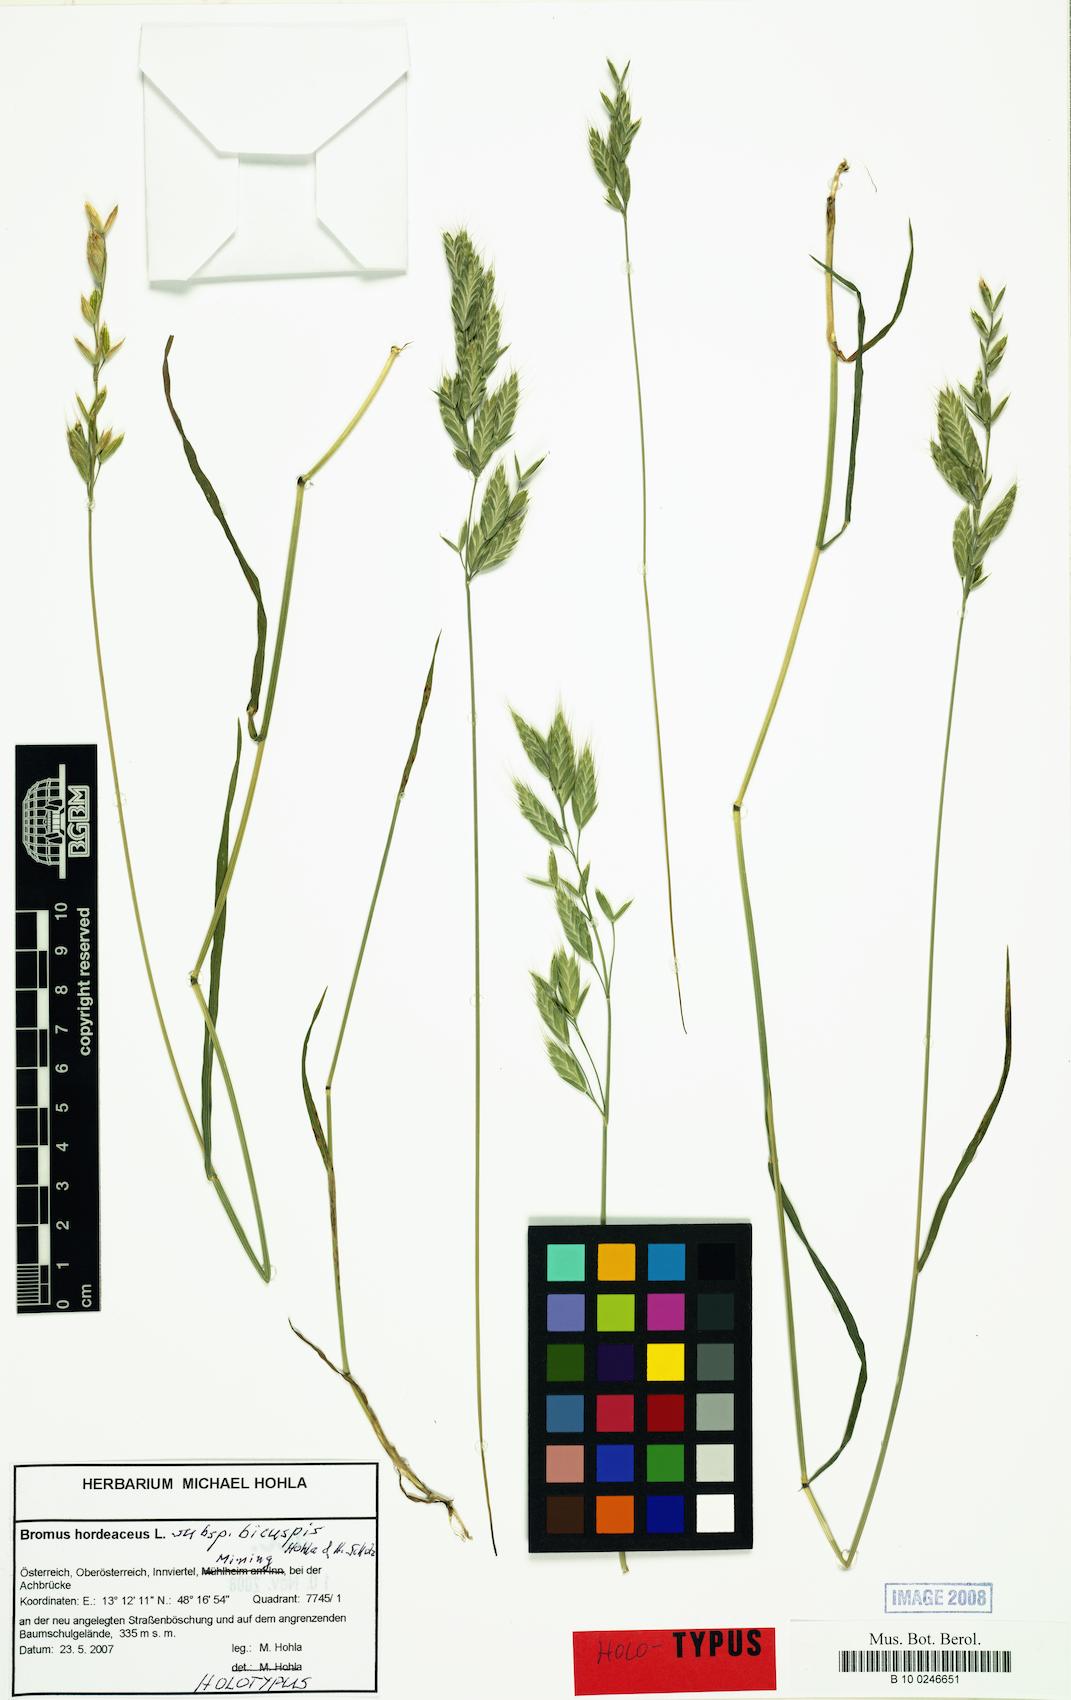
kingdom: Plantae
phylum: Tracheophyta
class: Liliopsida
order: Poales
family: Poaceae
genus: Bromus
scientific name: Bromus hordeaceus
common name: Soft brome
